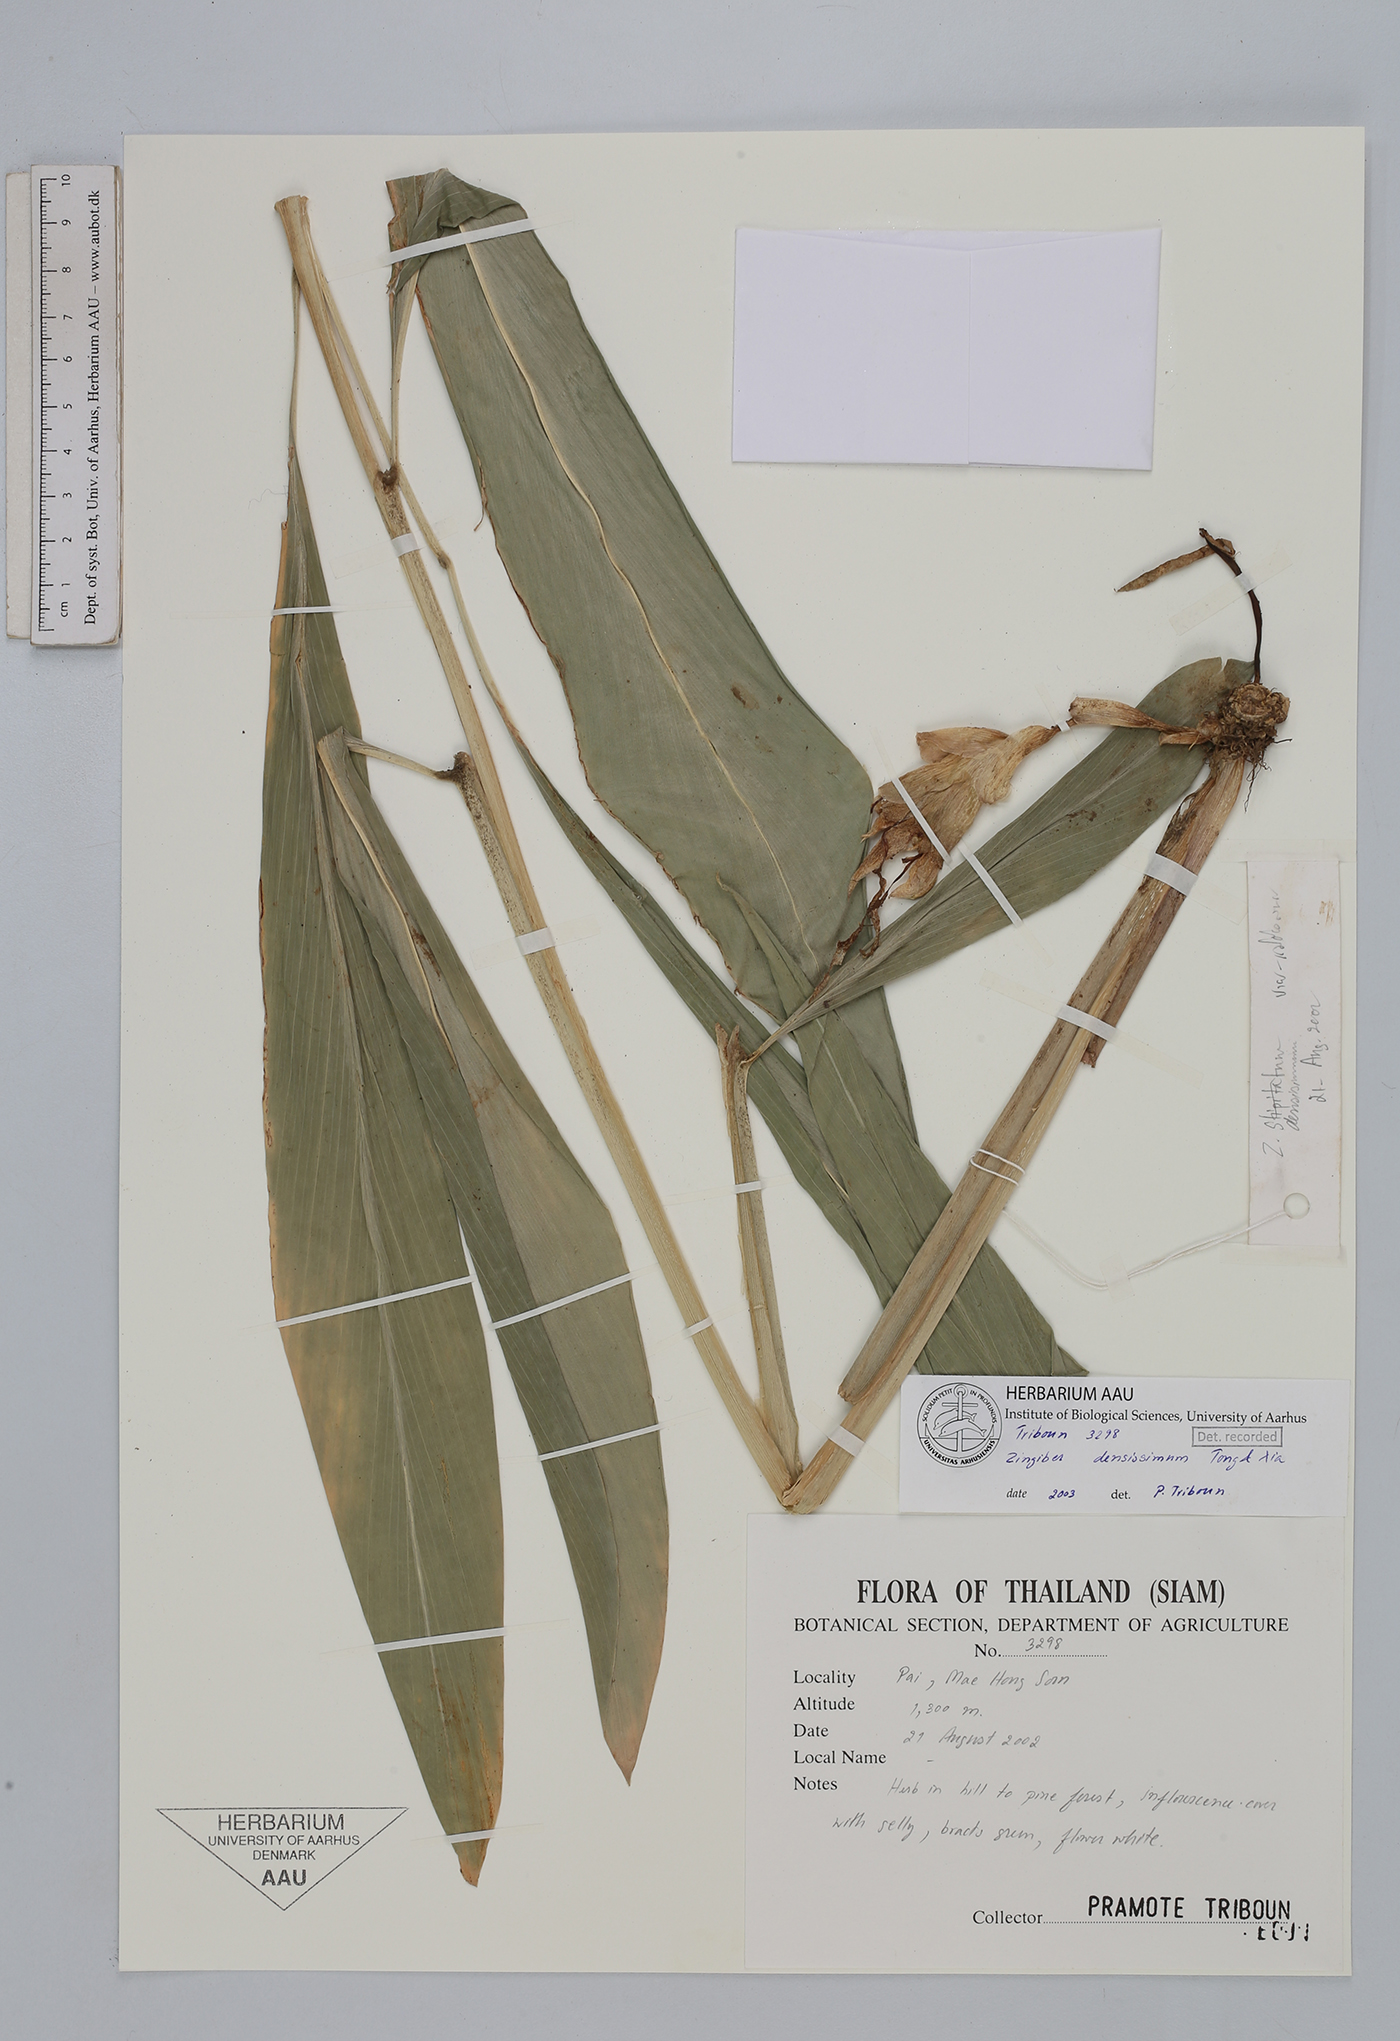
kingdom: Plantae
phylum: Tracheophyta
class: Liliopsida
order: Zingiberales
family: Zingiberaceae
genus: Zingiber
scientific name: Zingiber densissimum
